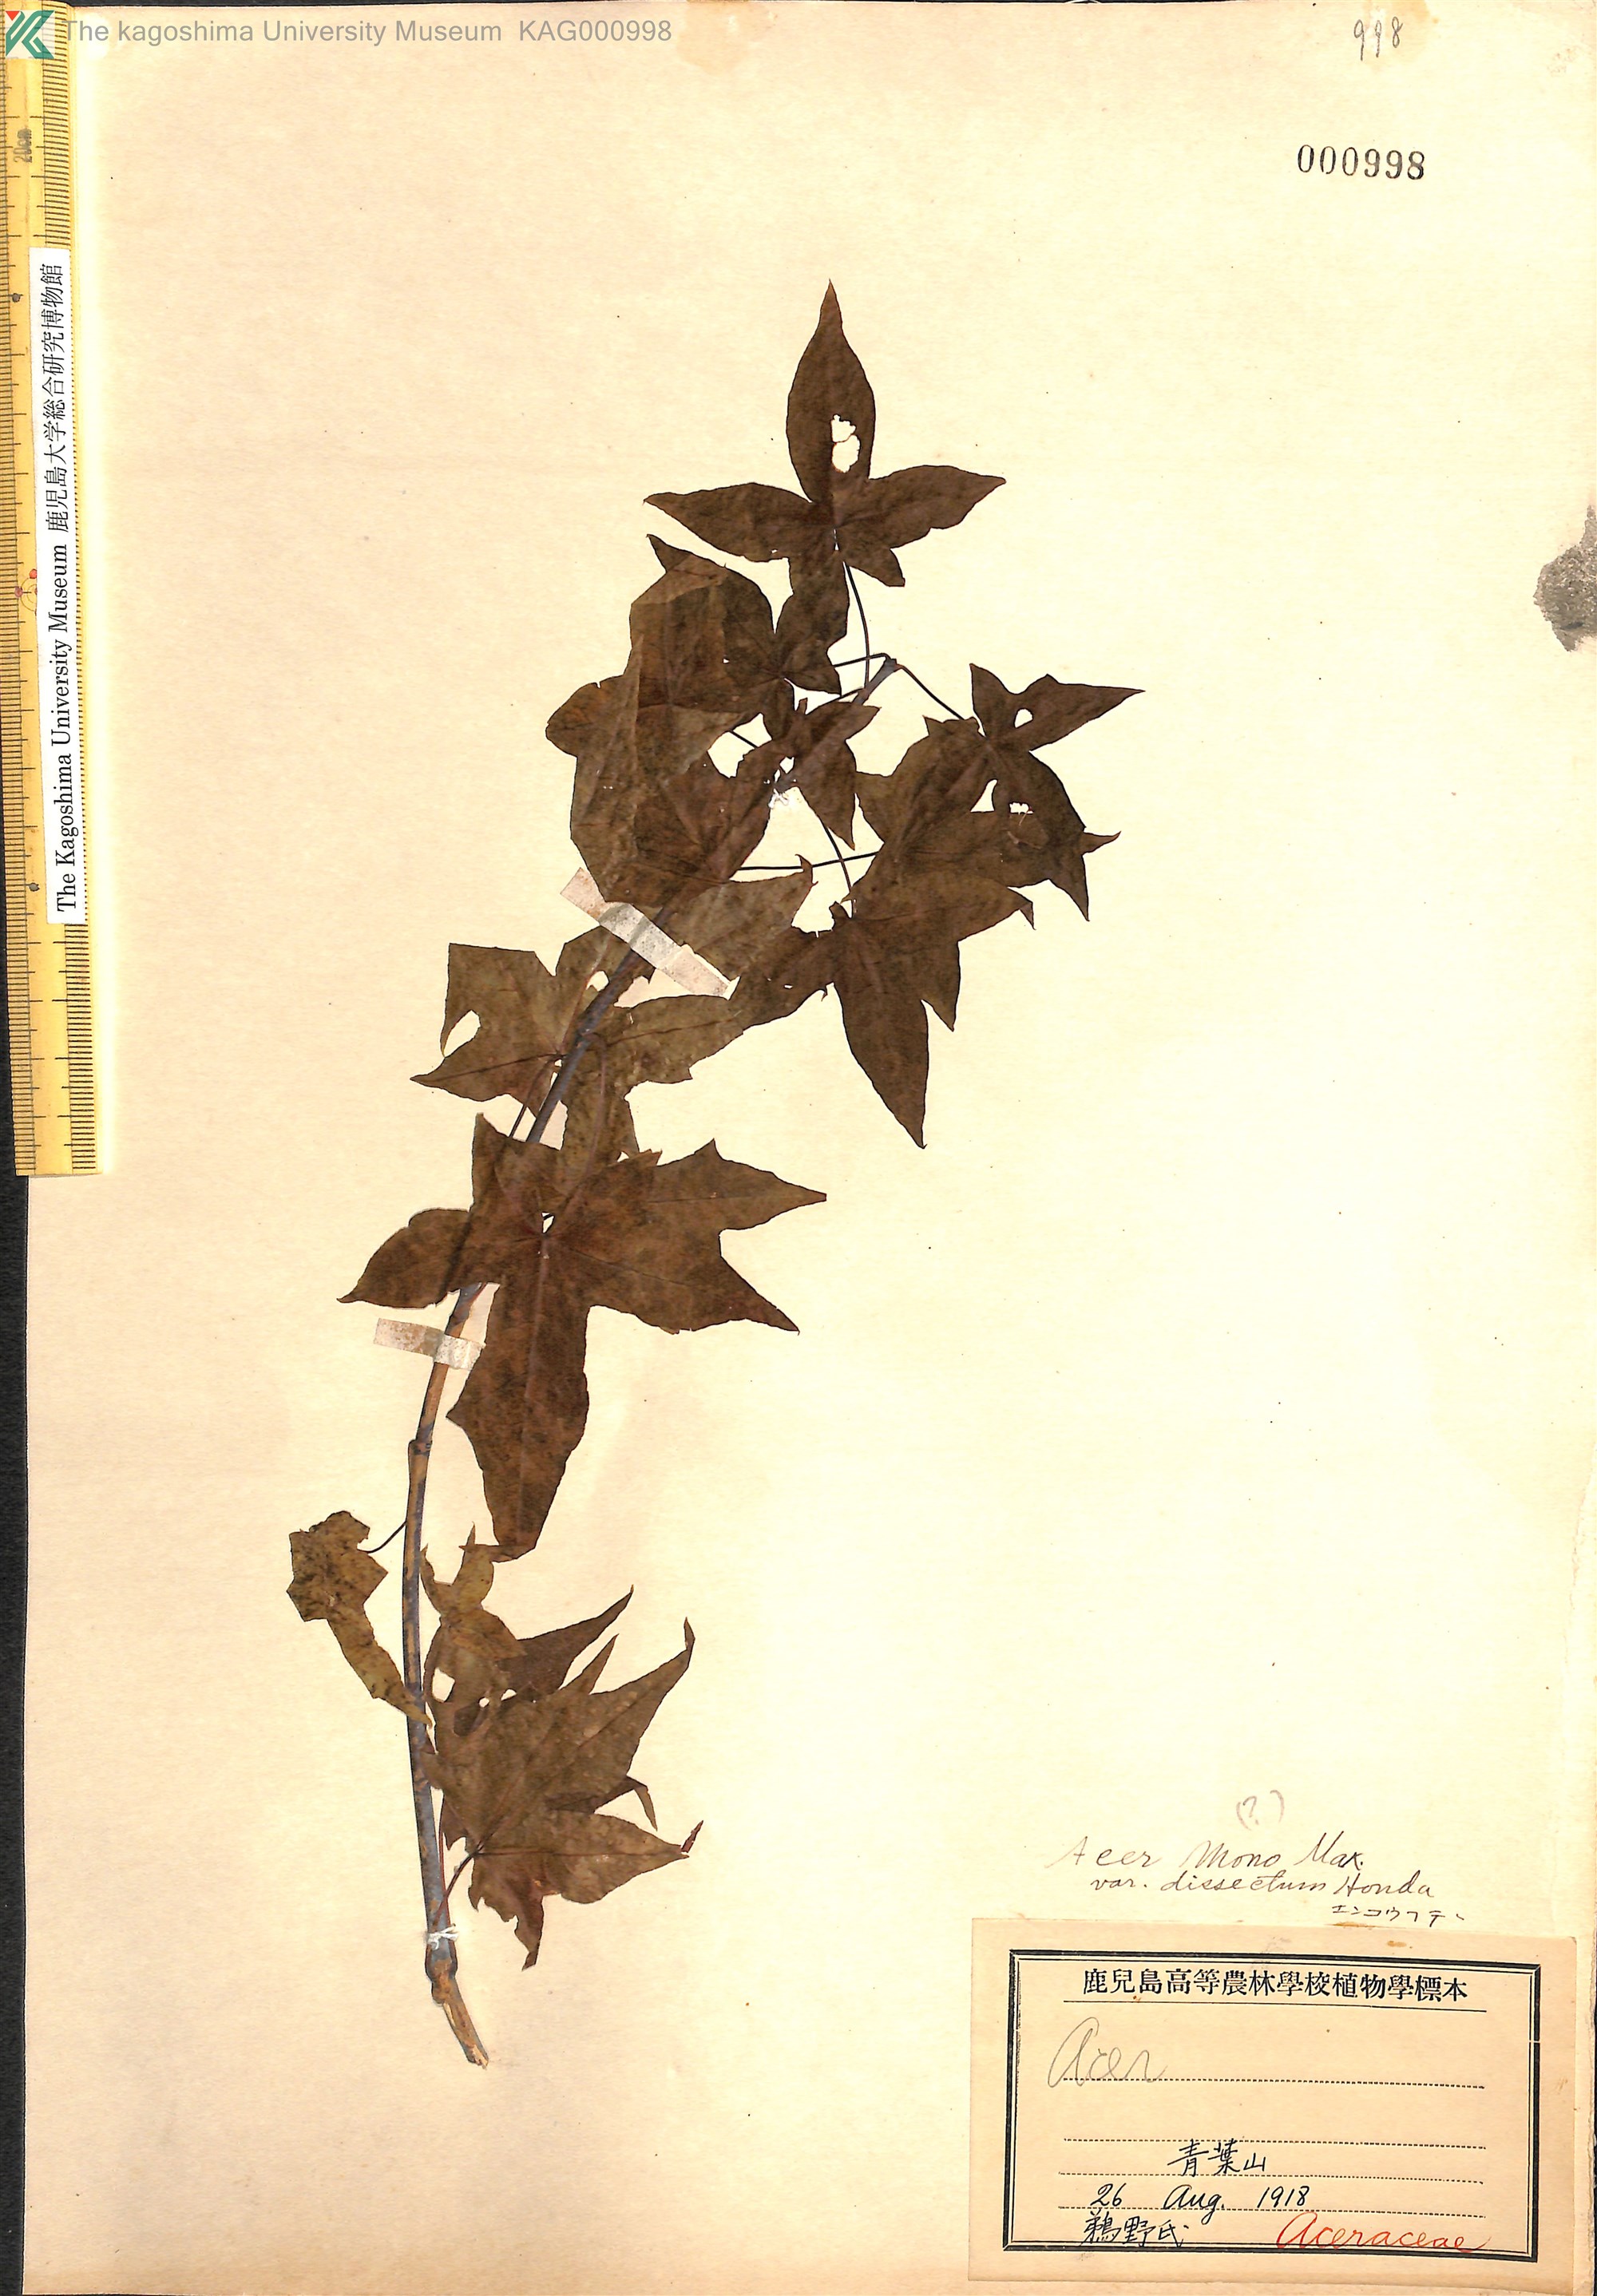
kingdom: Plantae
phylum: Tracheophyta
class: Magnoliopsida
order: Sapindales
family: Sapindaceae
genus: Acer
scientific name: Acer pictum
